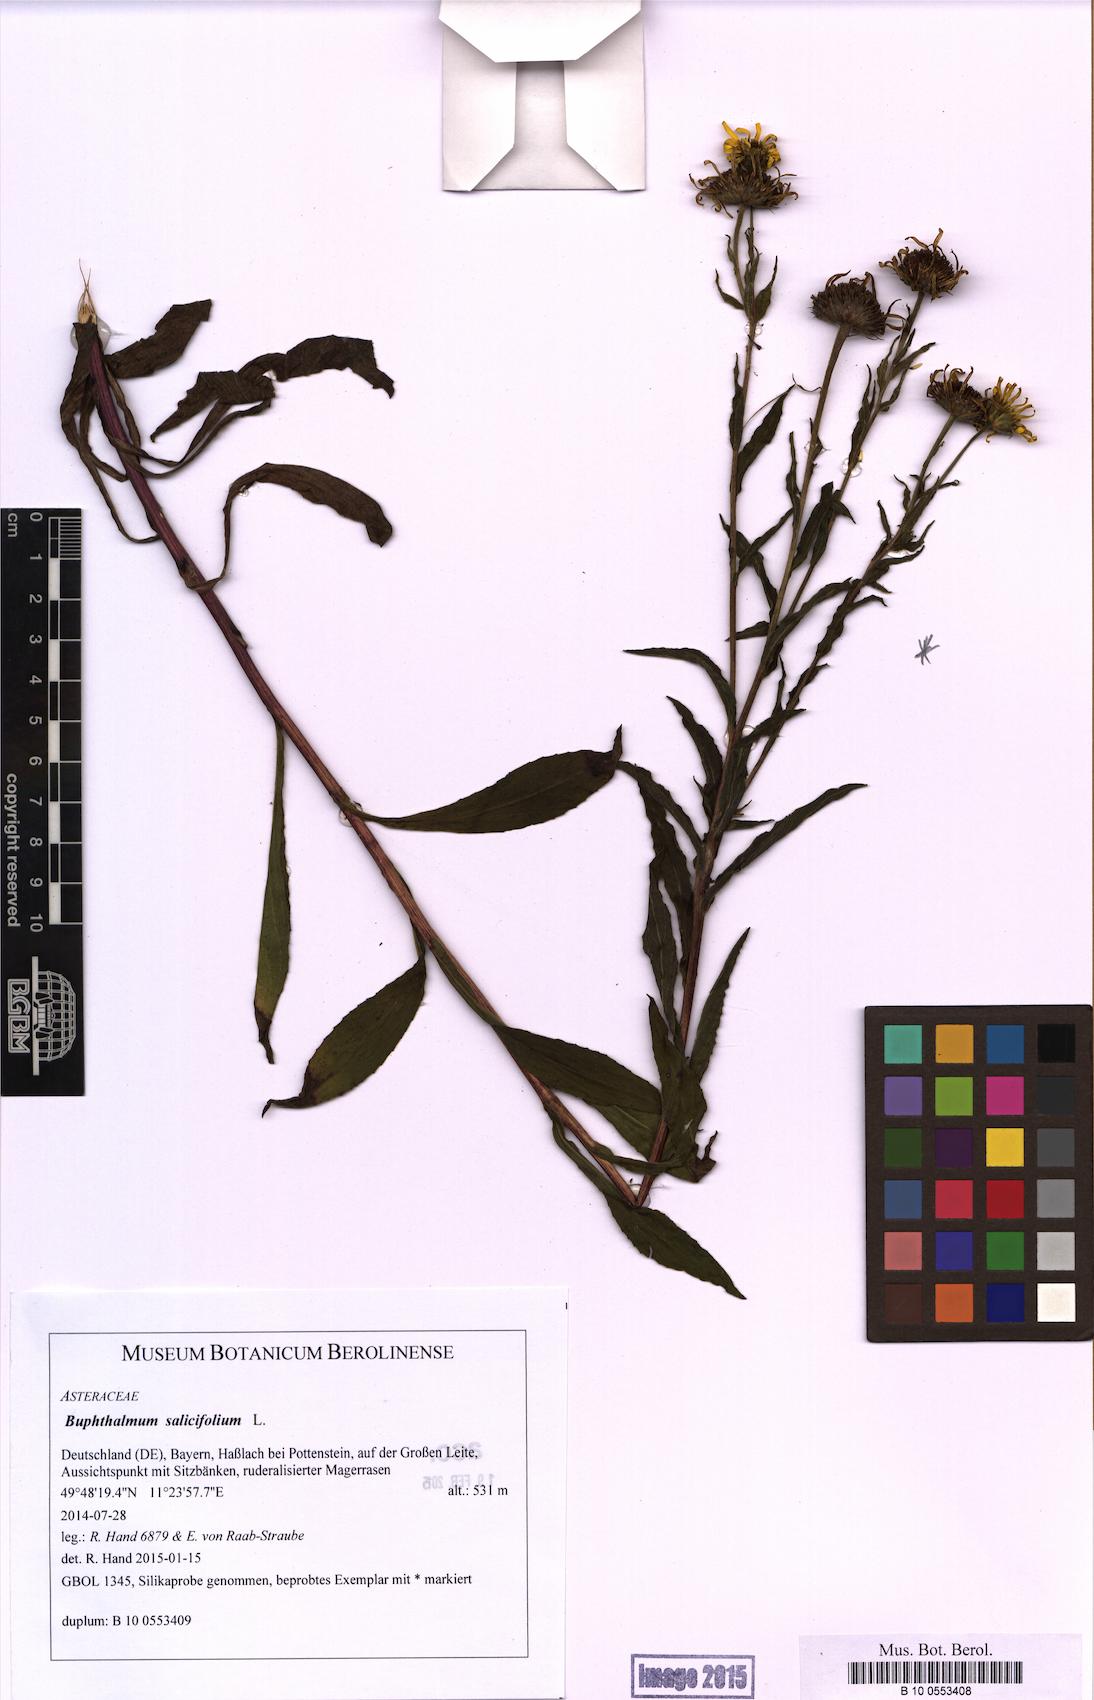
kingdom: Plantae
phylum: Tracheophyta
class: Magnoliopsida
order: Asterales
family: Asteraceae
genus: Buphthalmum
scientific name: Buphthalmum salicifolium
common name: Willow-leaved yellow-oxeye
